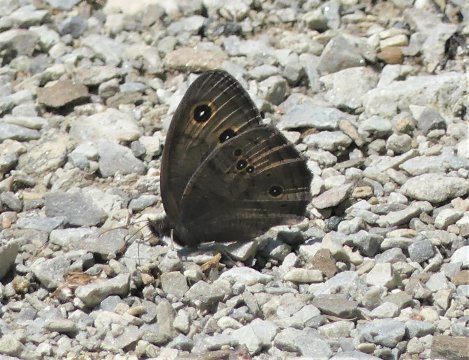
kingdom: Animalia
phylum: Arthropoda
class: Insecta
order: Lepidoptera
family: Nymphalidae
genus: Cercyonis
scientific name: Cercyonis pegala
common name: Common Wood-Nymph
